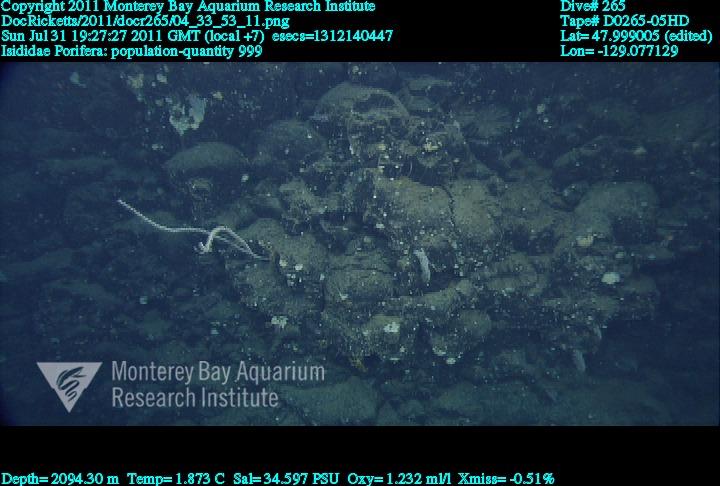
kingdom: Animalia
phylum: Porifera
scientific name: Porifera
